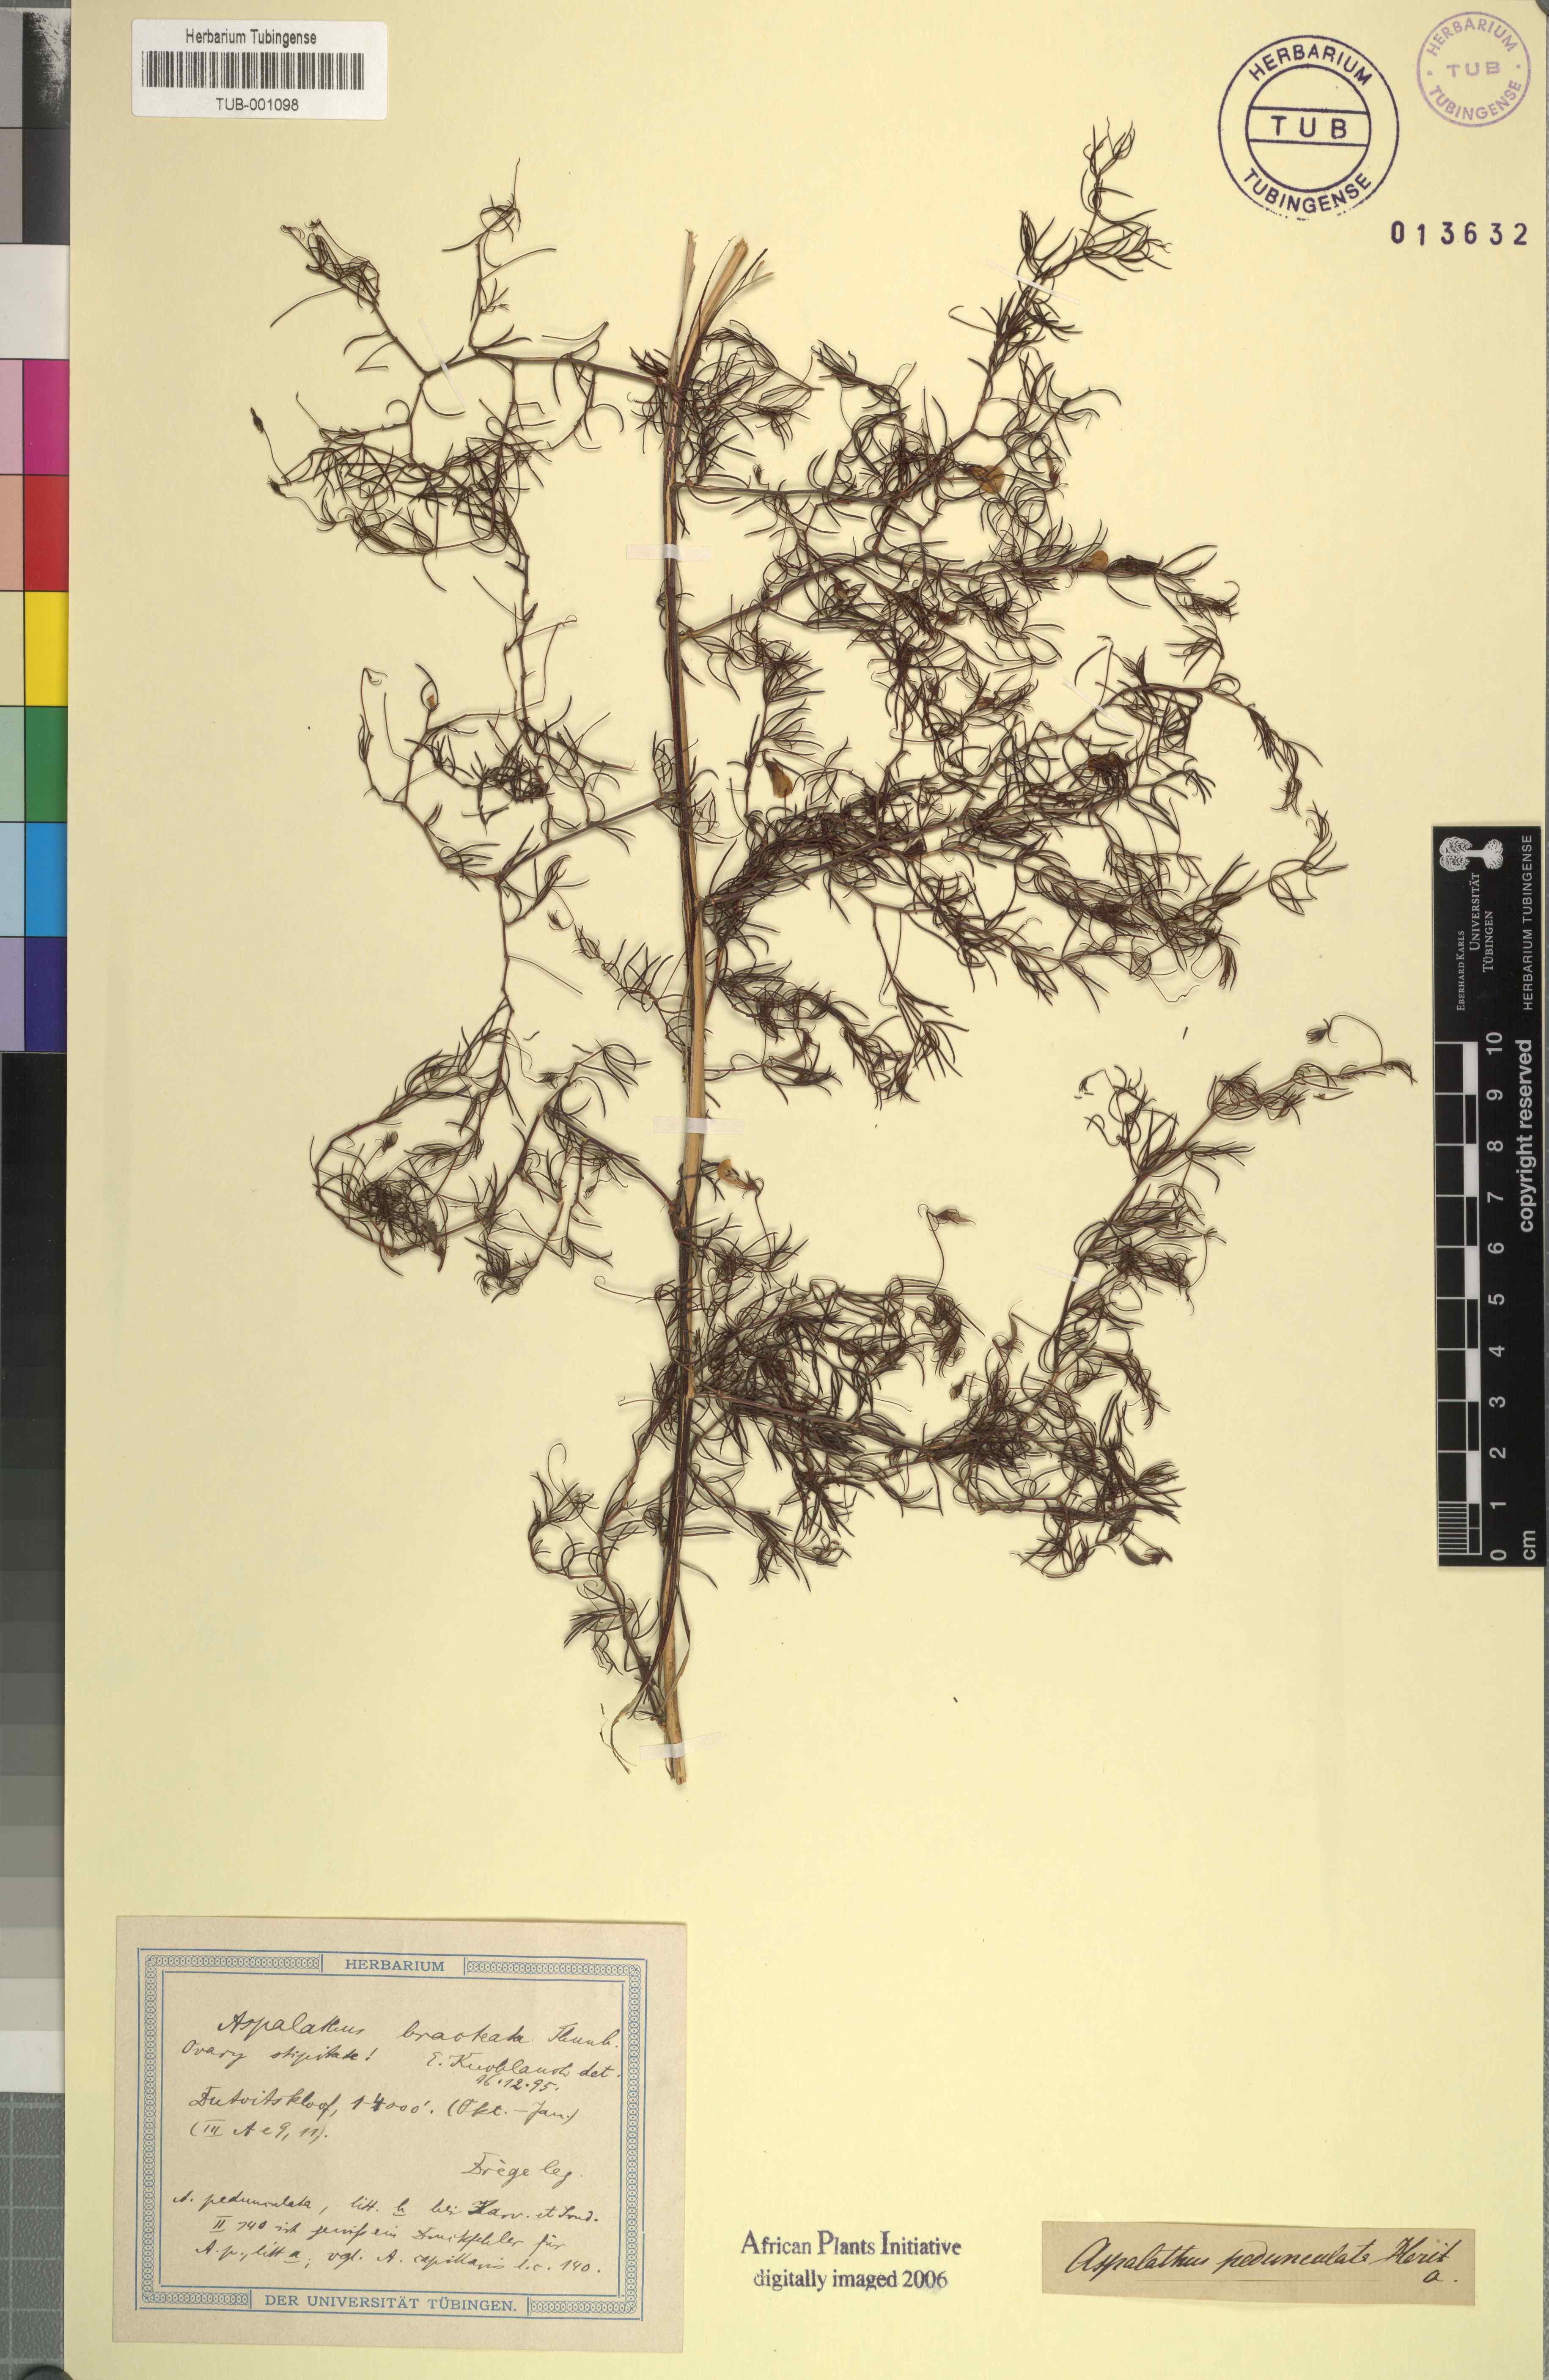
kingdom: Plantae
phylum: Tracheophyta
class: Magnoliopsida
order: Fabales
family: Fabaceae
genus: Aspalathus
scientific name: Aspalathus bracteata
